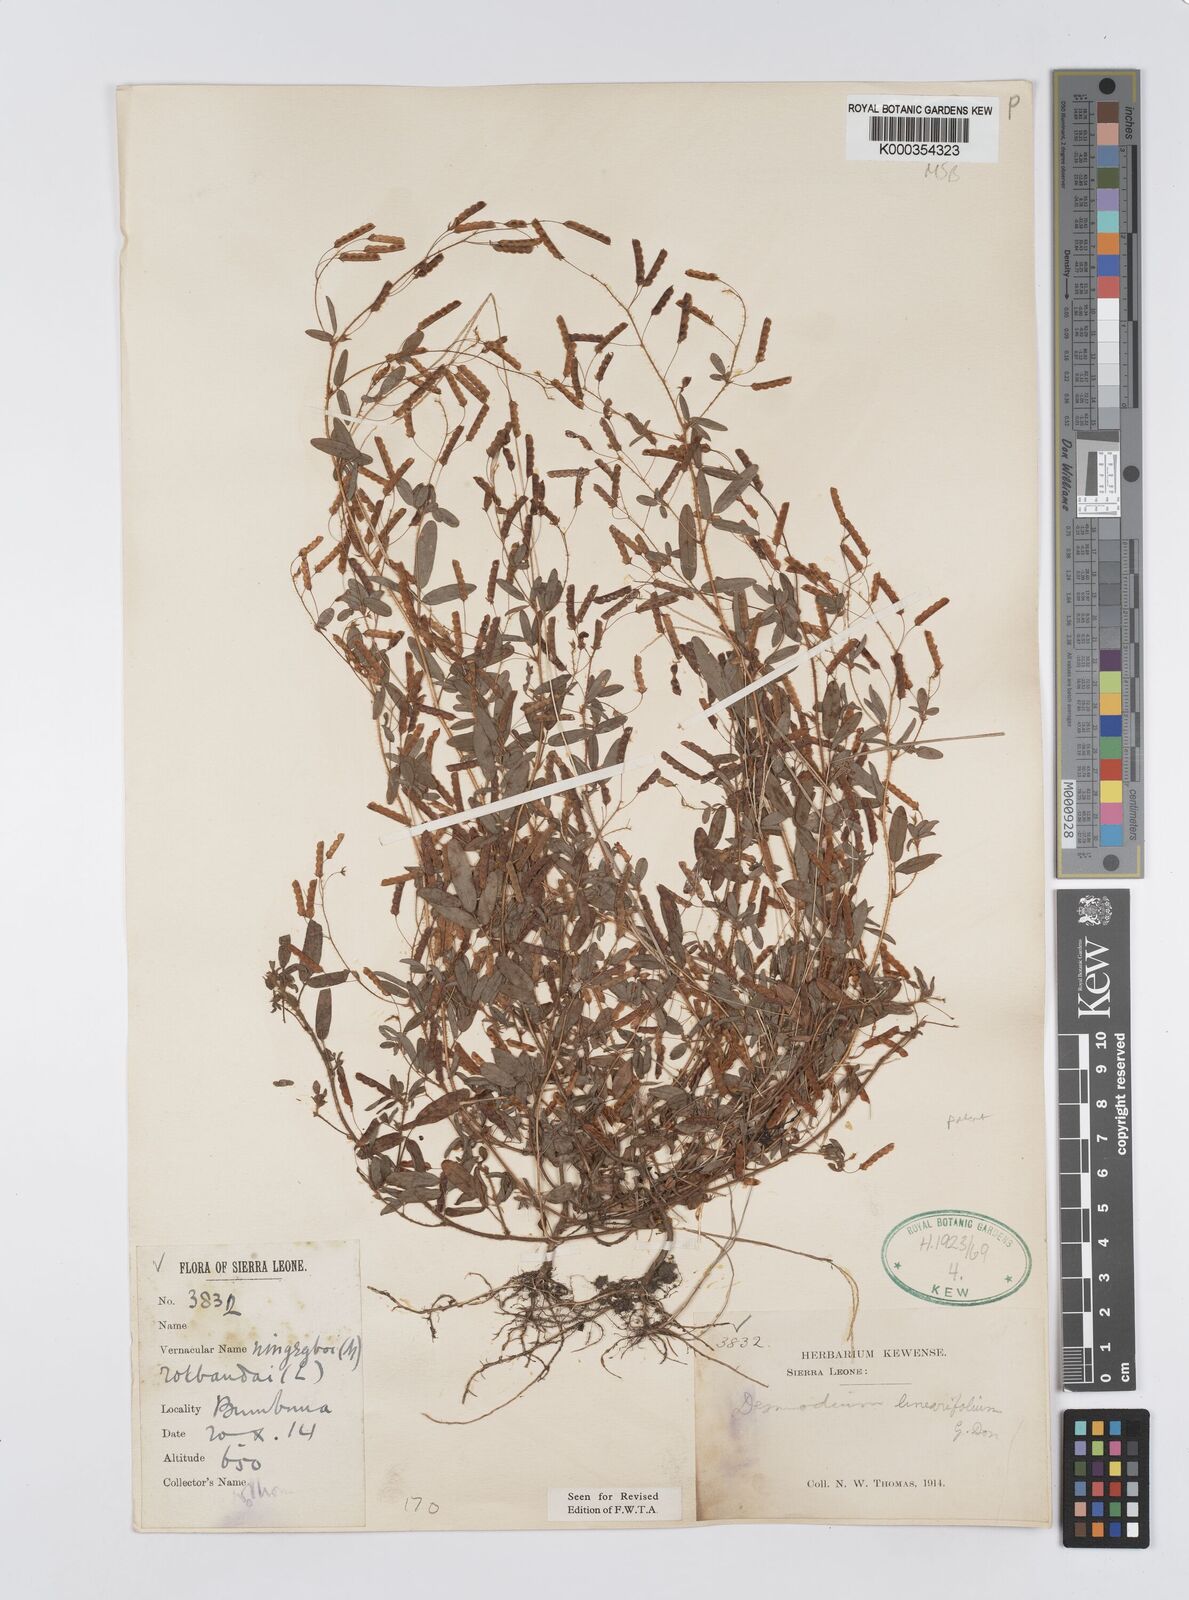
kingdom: Plantae
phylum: Tracheophyta
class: Magnoliopsida
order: Fabales
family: Fabaceae
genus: Desmodium
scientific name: Desmodium linearifolium
